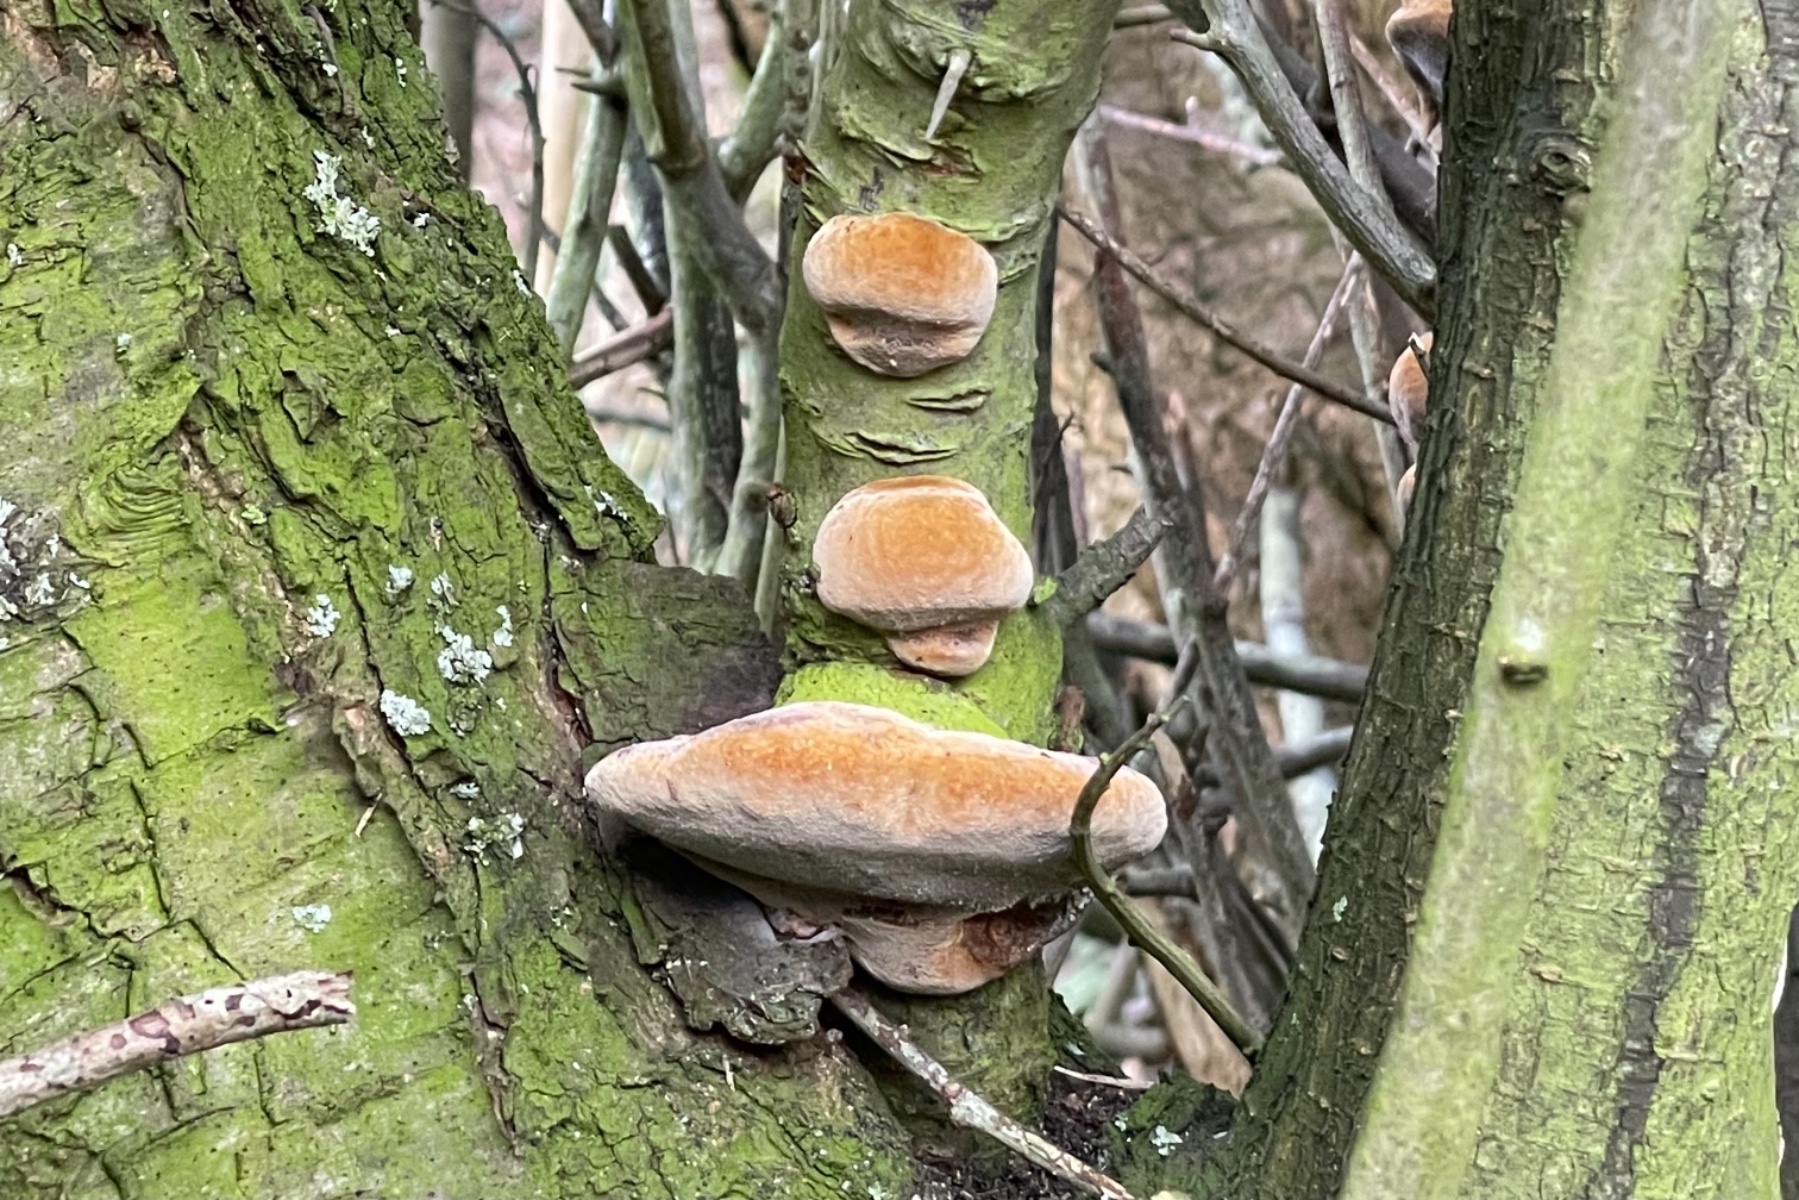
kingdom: Fungi
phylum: Basidiomycota
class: Agaricomycetes
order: Hymenochaetales
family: Hymenochaetaceae
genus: Phellinus
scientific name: Phellinus pomaceus
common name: blomme-ildporesvamp
